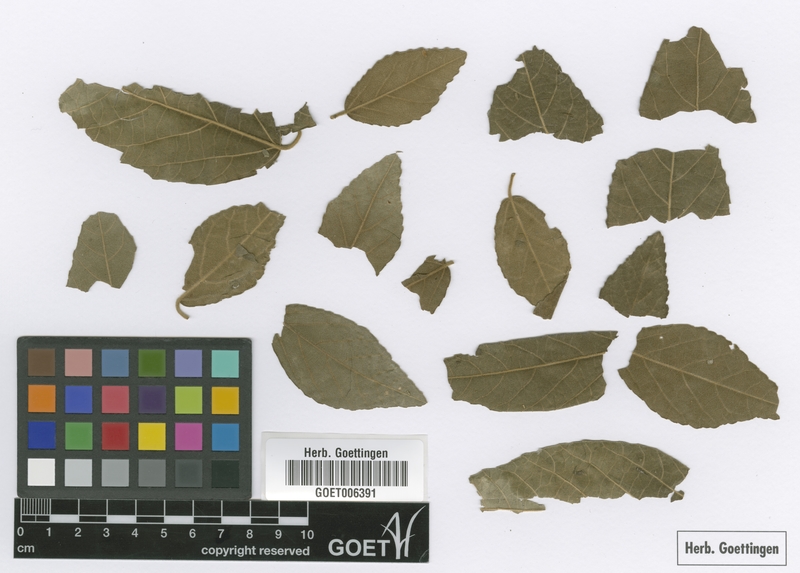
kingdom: Plantae
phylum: Tracheophyta
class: Magnoliopsida
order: Malpighiales
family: Euphorbiaceae
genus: Bernardia
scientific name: Bernardia carpinifolia
